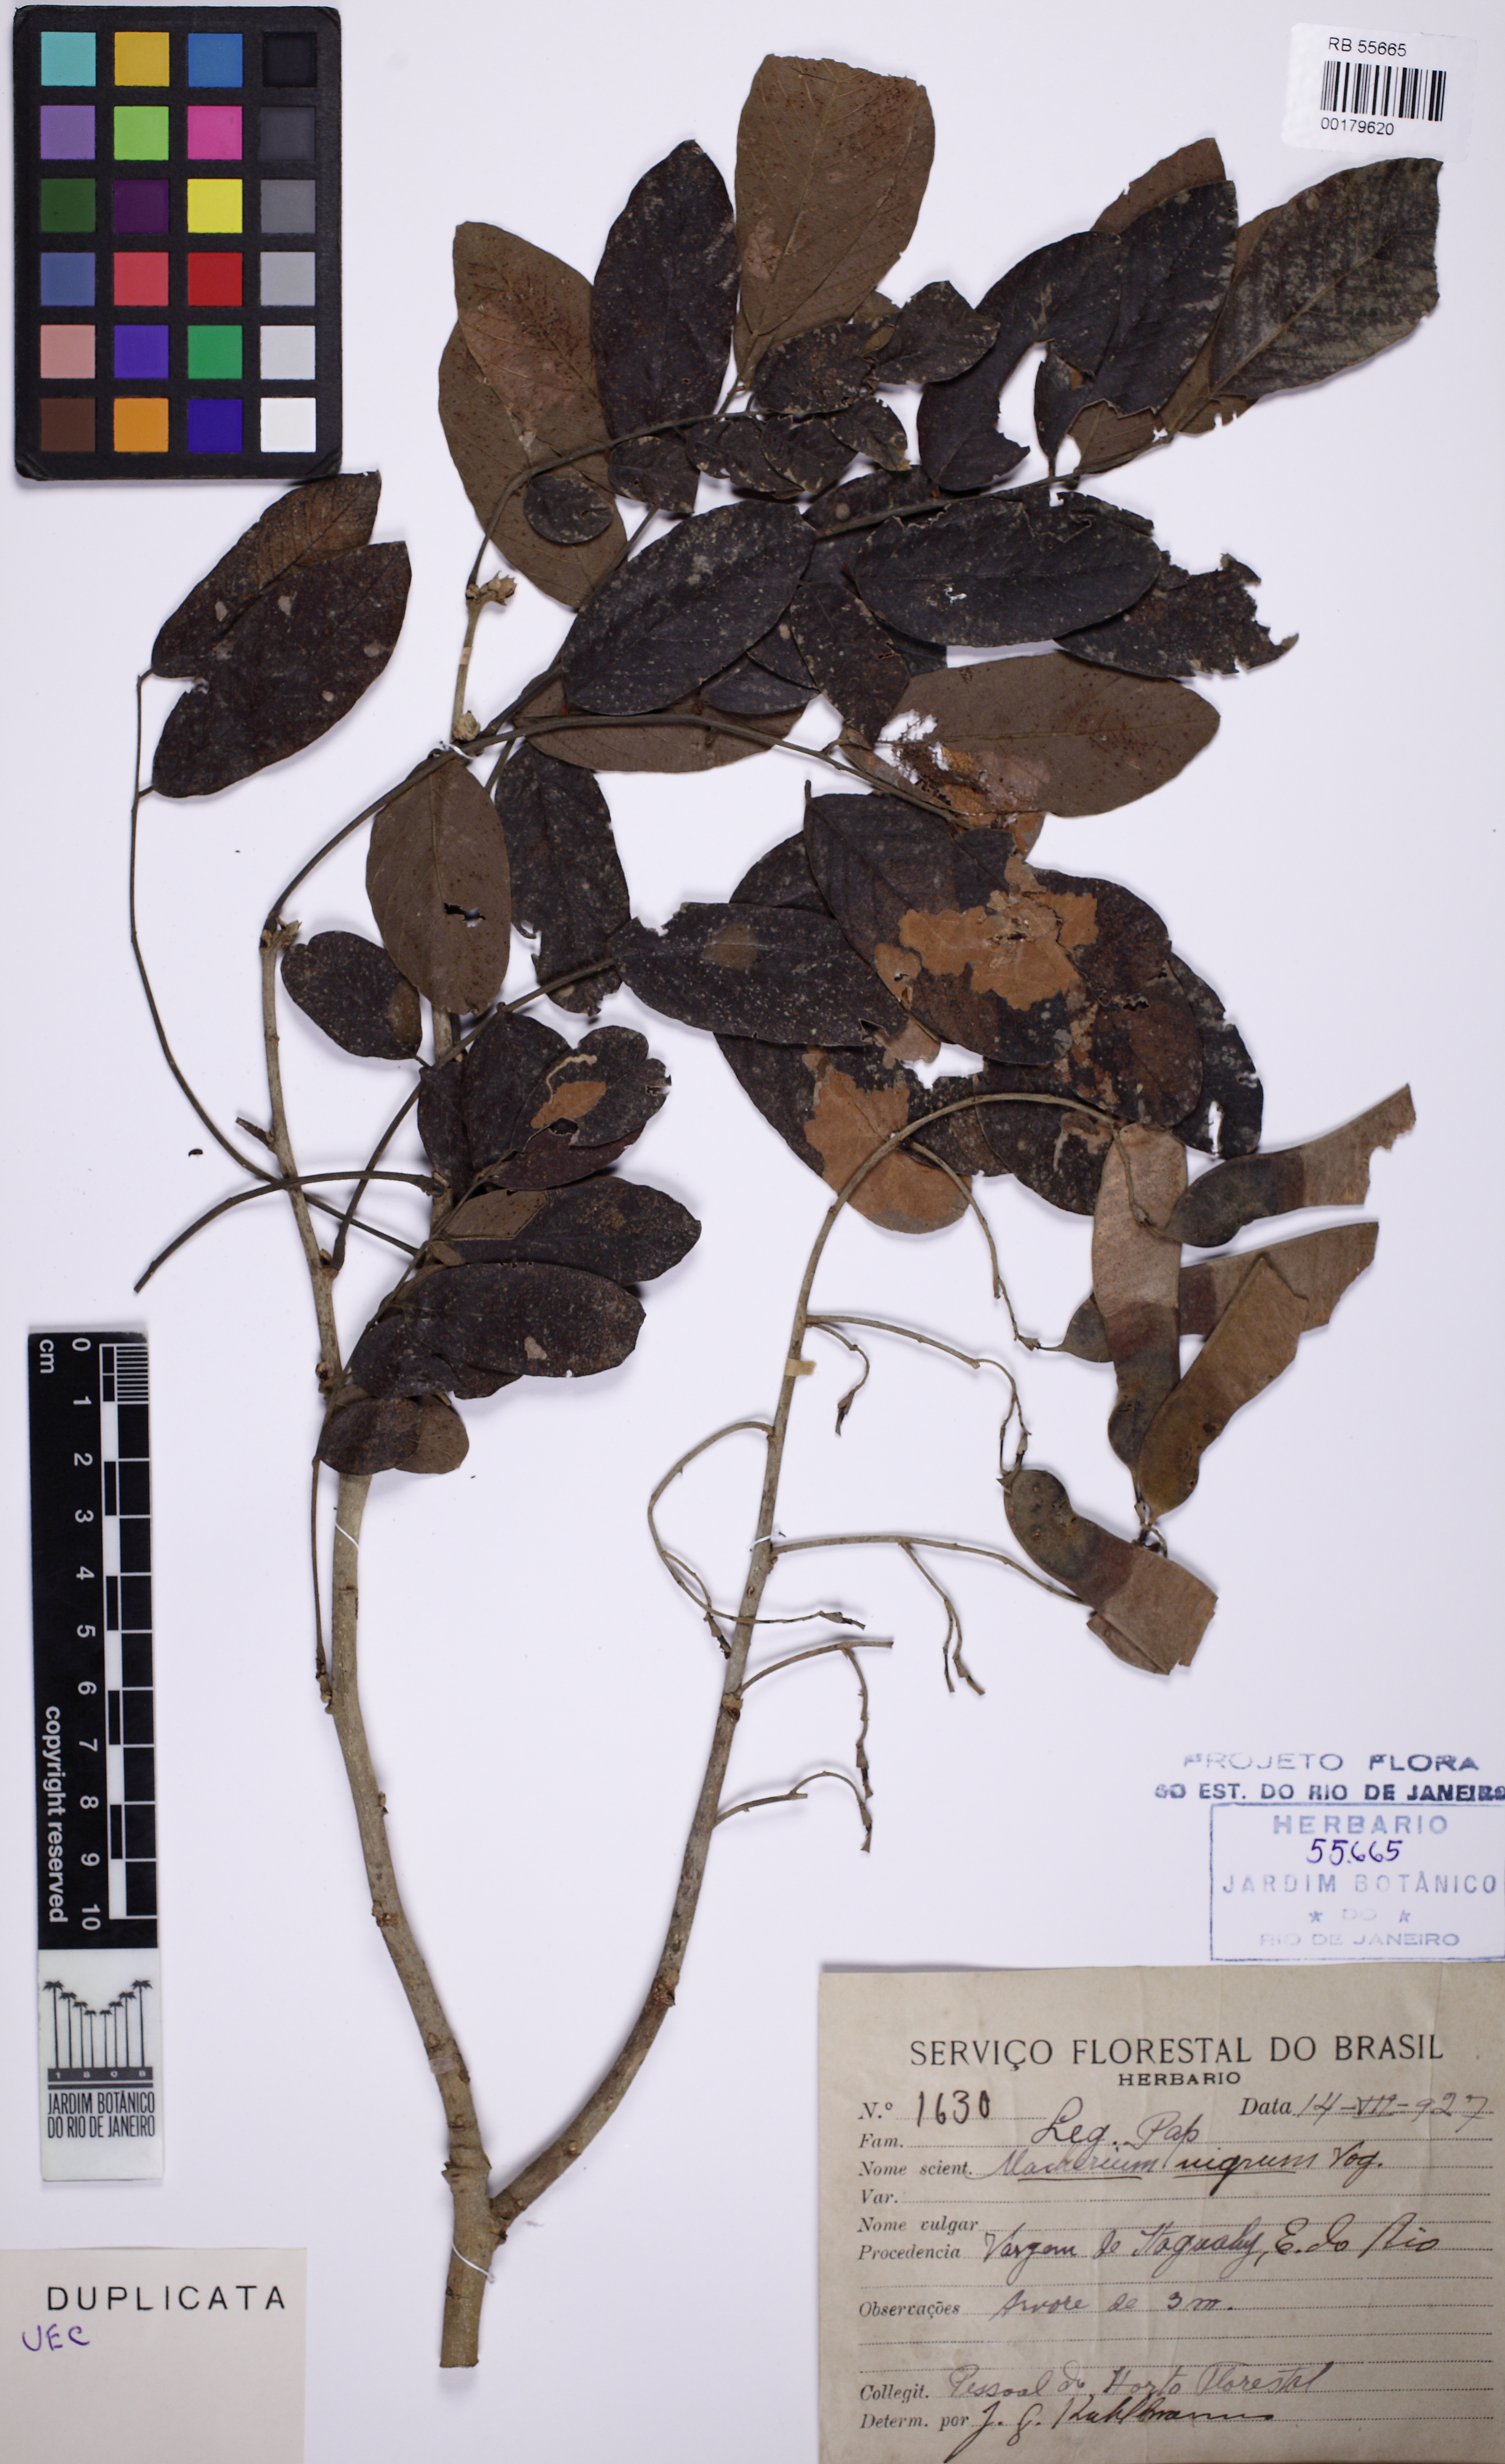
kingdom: Plantae
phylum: Tracheophyta
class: Magnoliopsida
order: Fabales
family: Fabaceae
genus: Machaerium
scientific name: Machaerium nigrum
